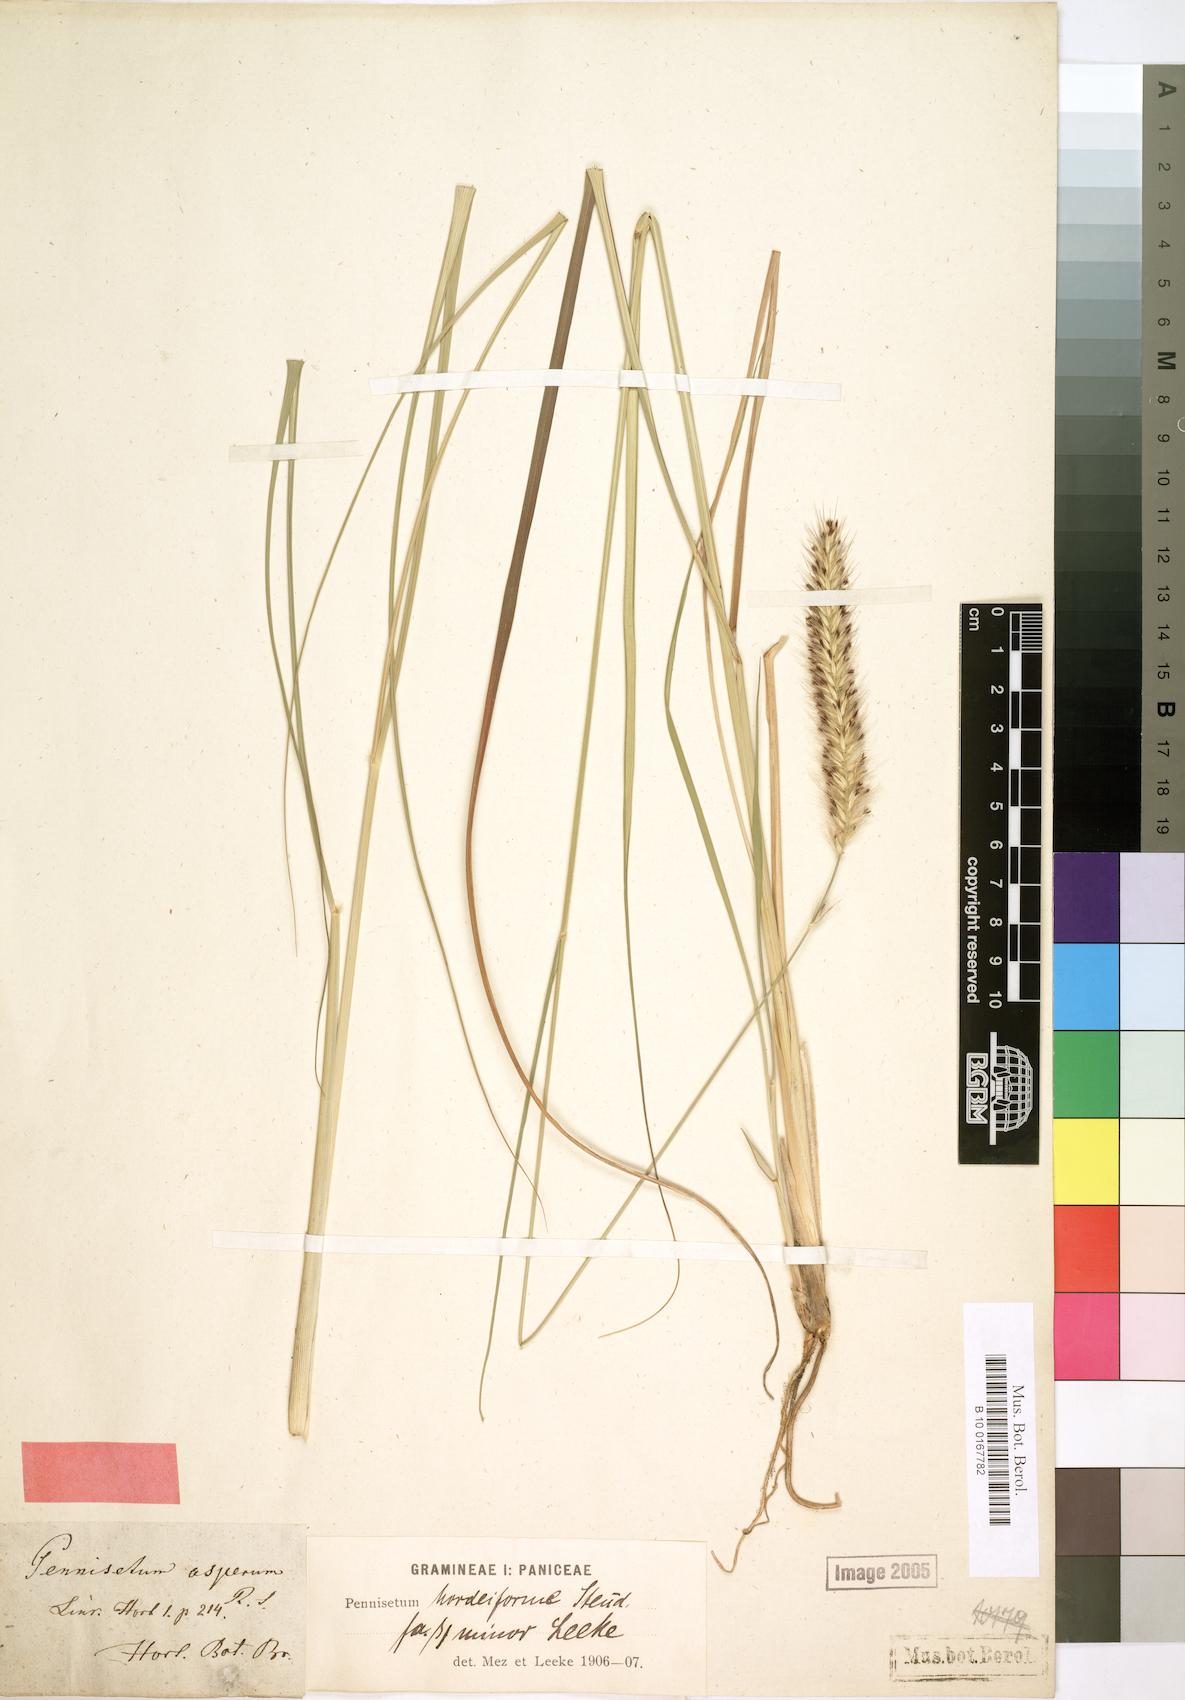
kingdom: Plantae
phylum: Tracheophyta
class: Liliopsida
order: Poales
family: Poaceae
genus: Cenchrus
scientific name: Cenchrus caudatus
